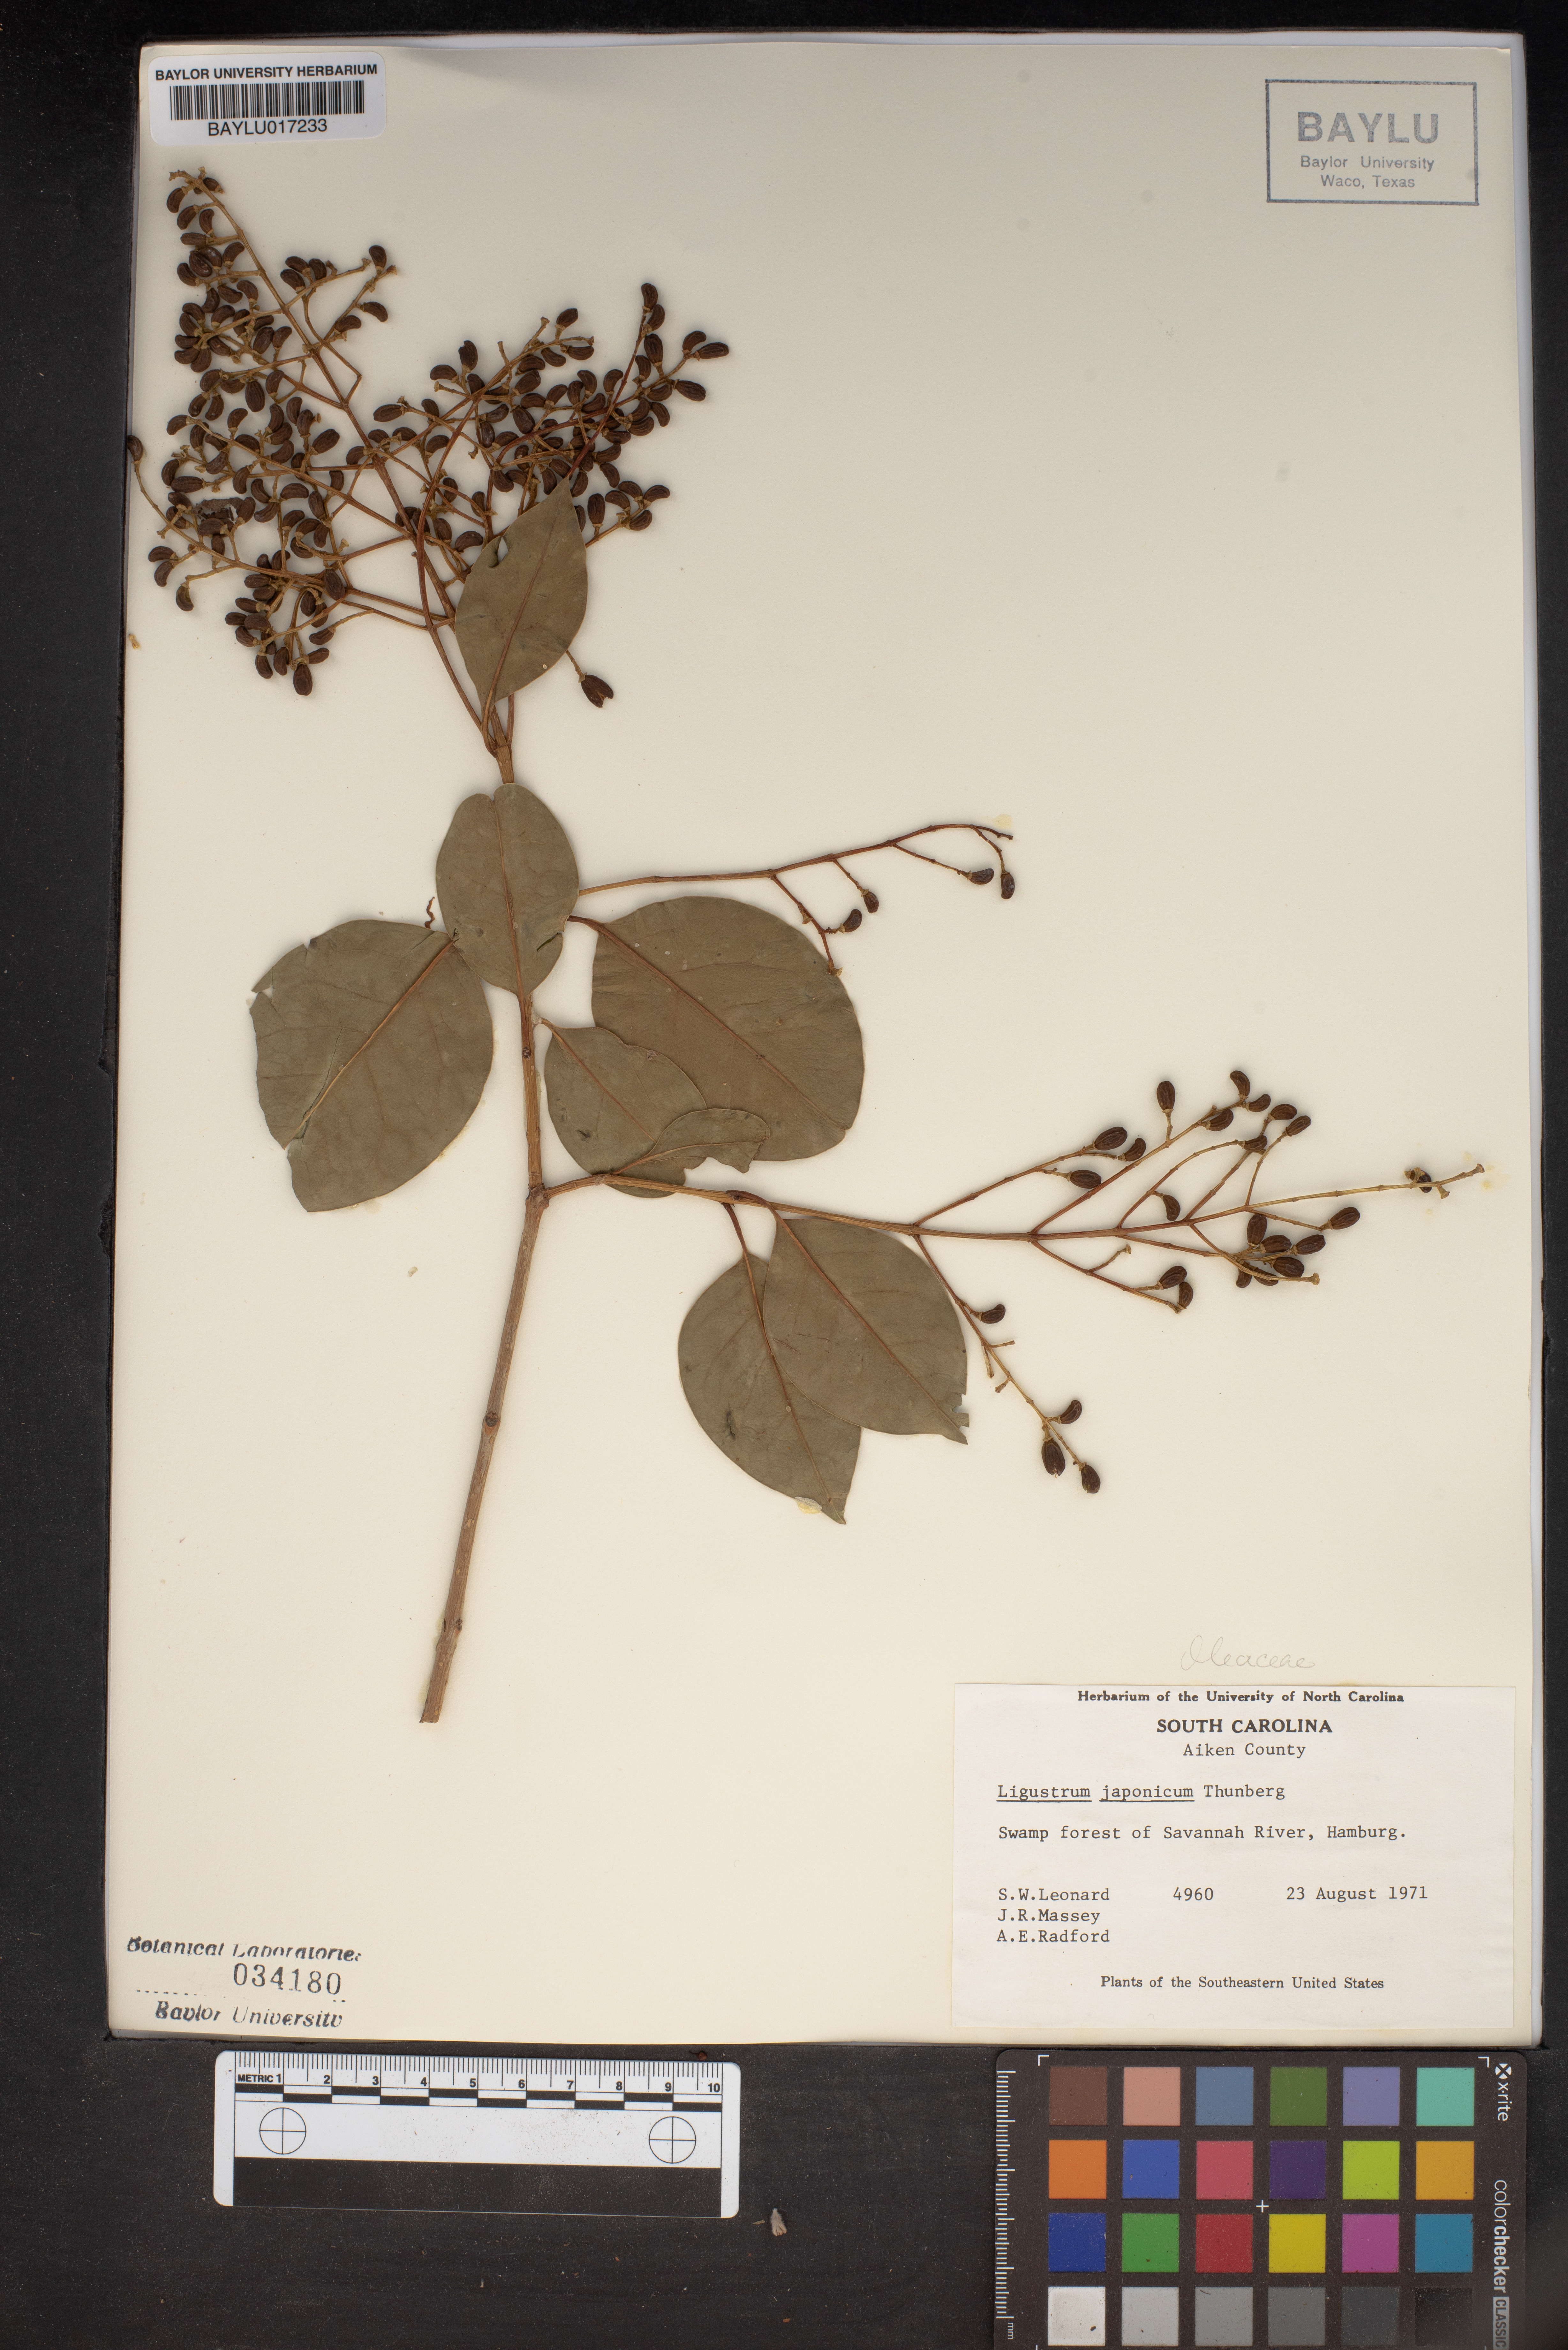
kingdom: Plantae
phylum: Tracheophyta
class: Magnoliopsida
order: Lamiales
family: Oleaceae
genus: Ligustrum
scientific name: Ligustrum japonicum
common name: Japanese privet
